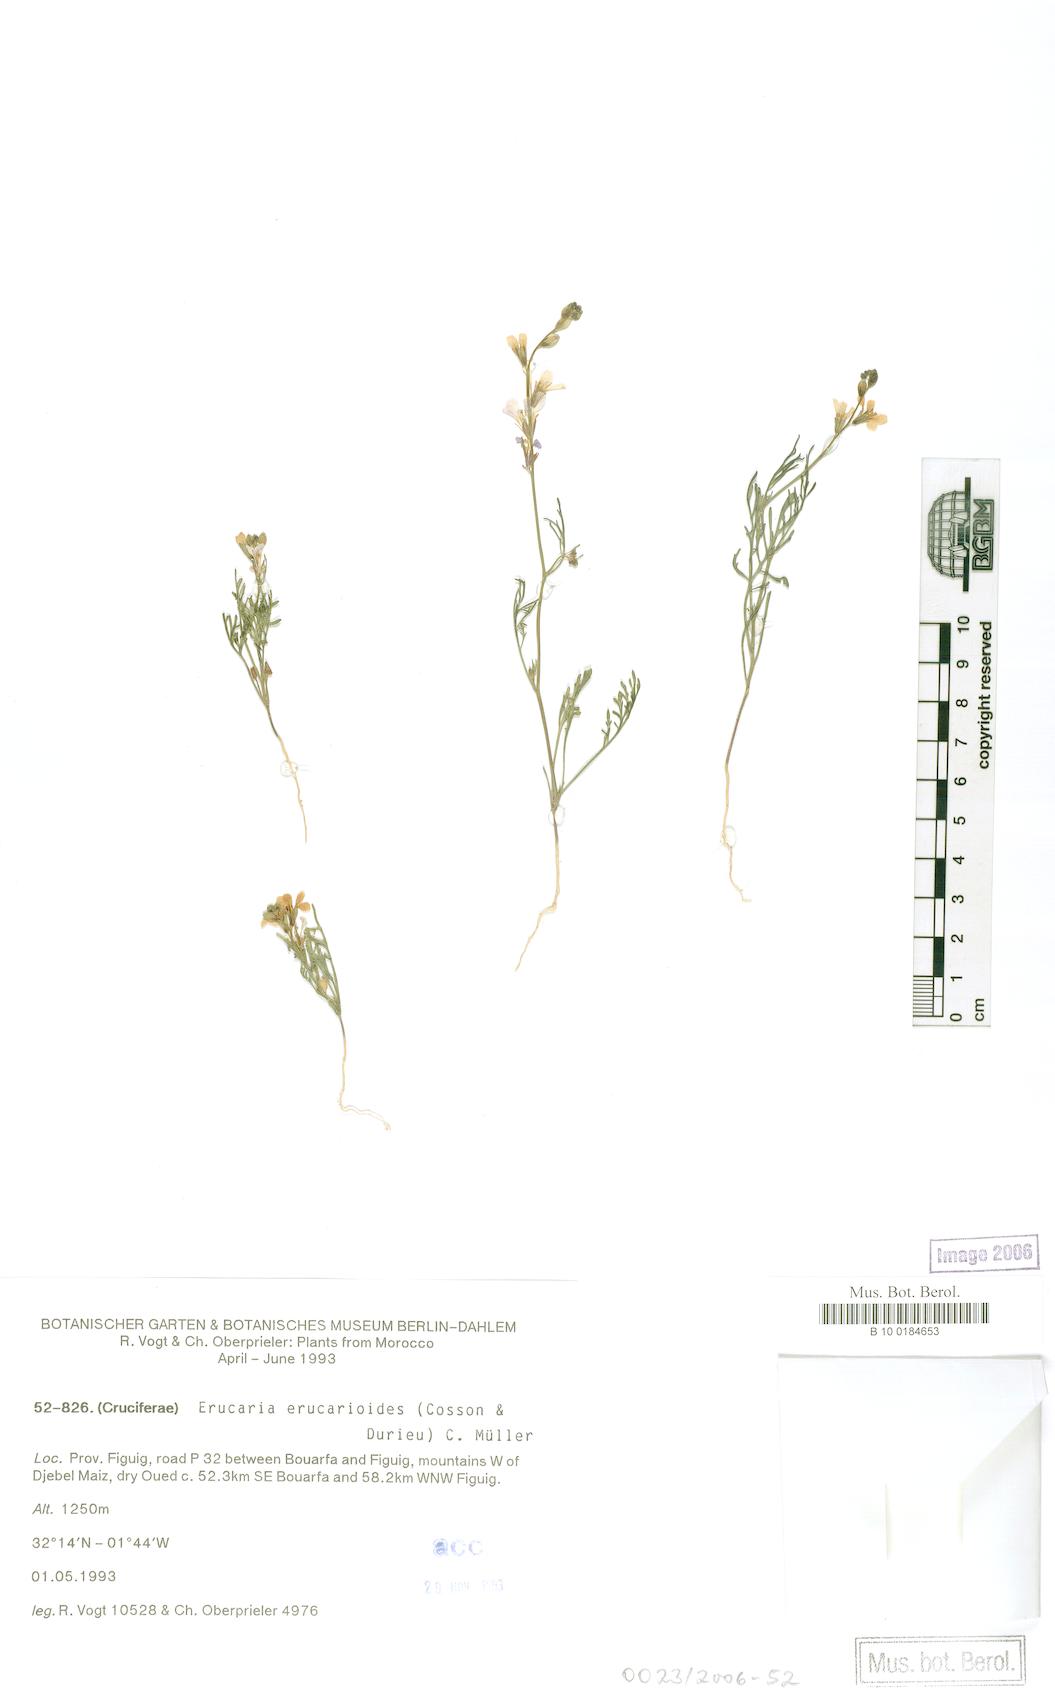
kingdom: Plantae
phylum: Tracheophyta
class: Magnoliopsida
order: Brassicales
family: Brassicaceae
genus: Erucaria
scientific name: Erucaria erucarioides
